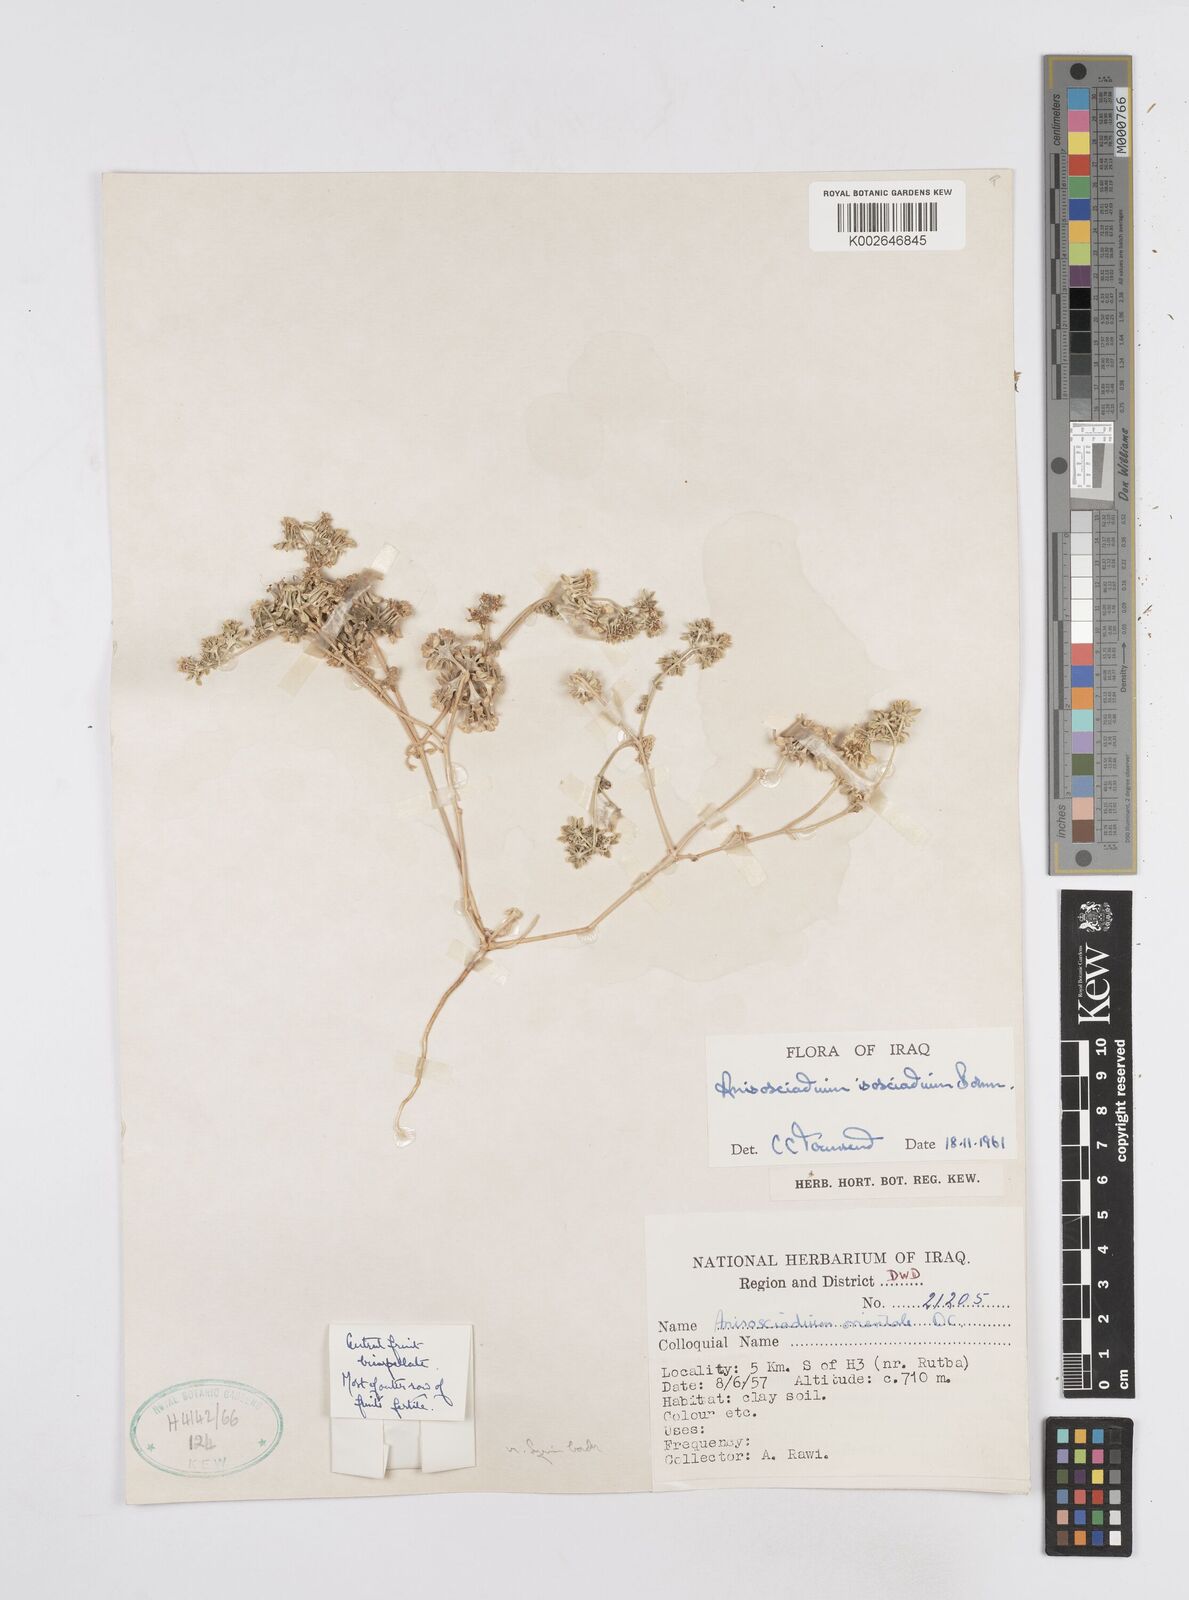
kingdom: Plantae
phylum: Tracheophyta
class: Magnoliopsida
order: Apiales
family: Apiaceae
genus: Anisosciadium
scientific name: Anisosciadium isosciadium
